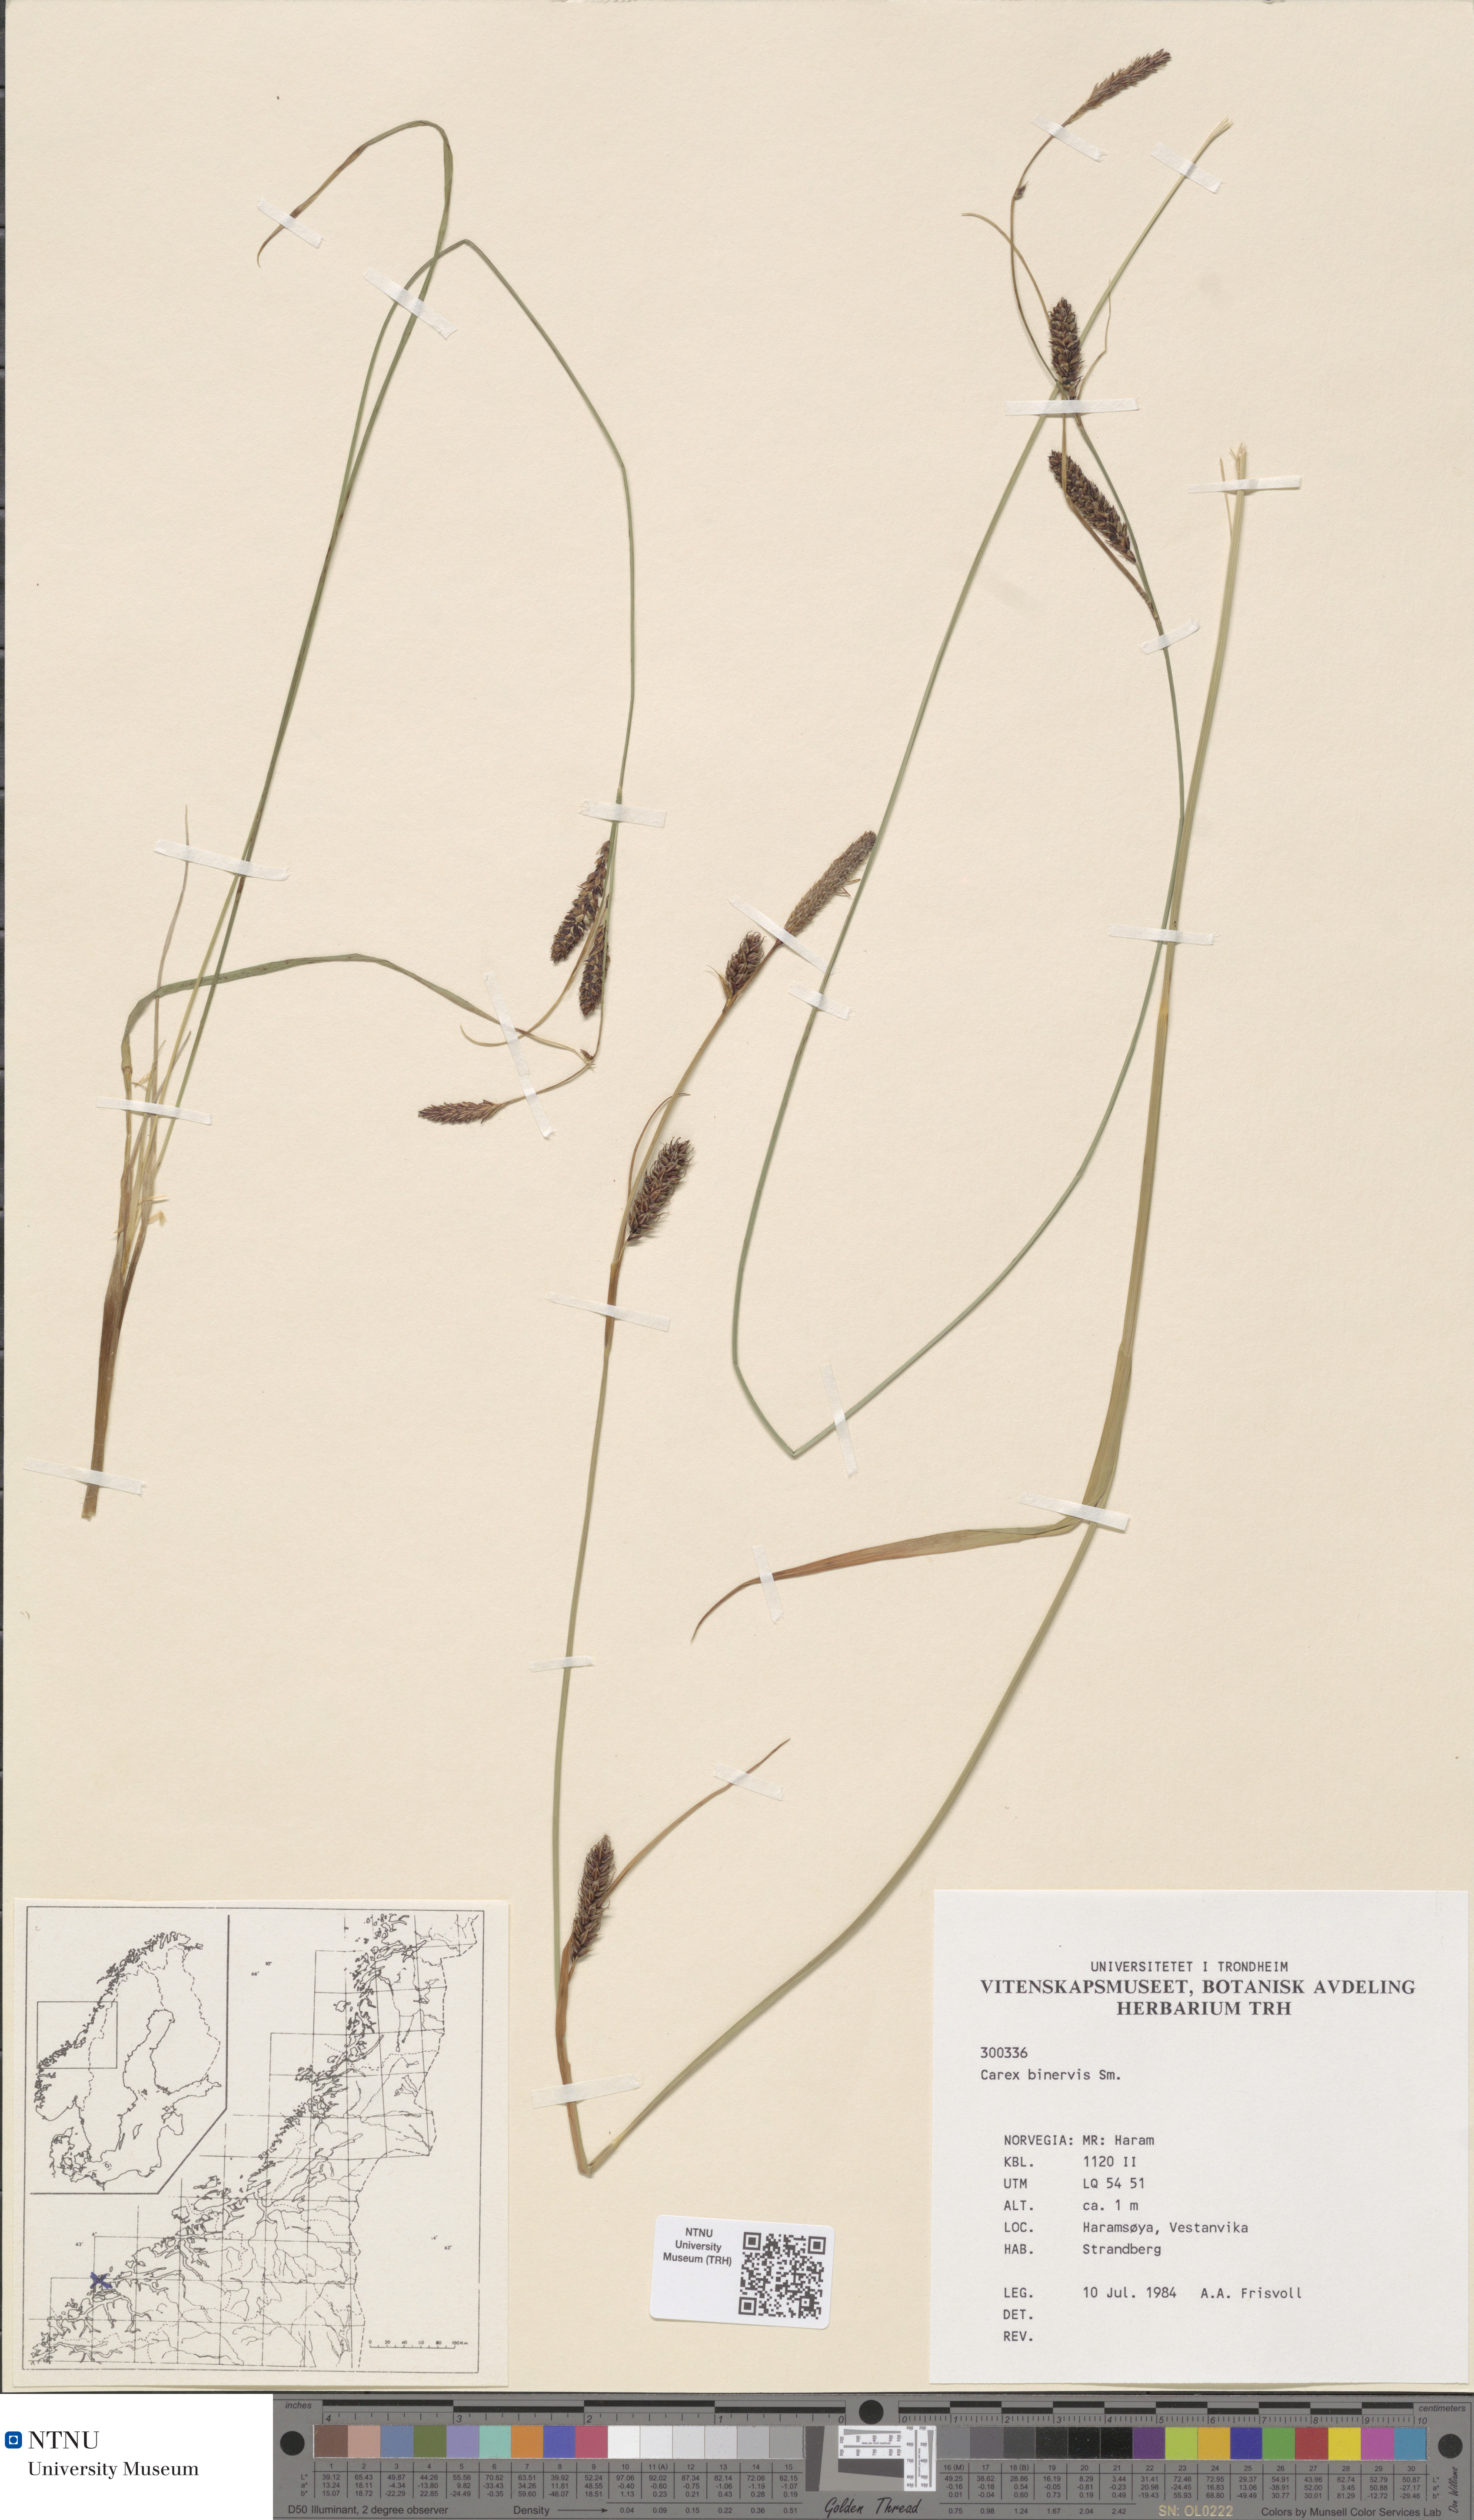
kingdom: Plantae
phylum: Tracheophyta
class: Liliopsida
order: Poales
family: Cyperaceae
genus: Carex
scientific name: Carex binervis
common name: Green-ribbed sedge
